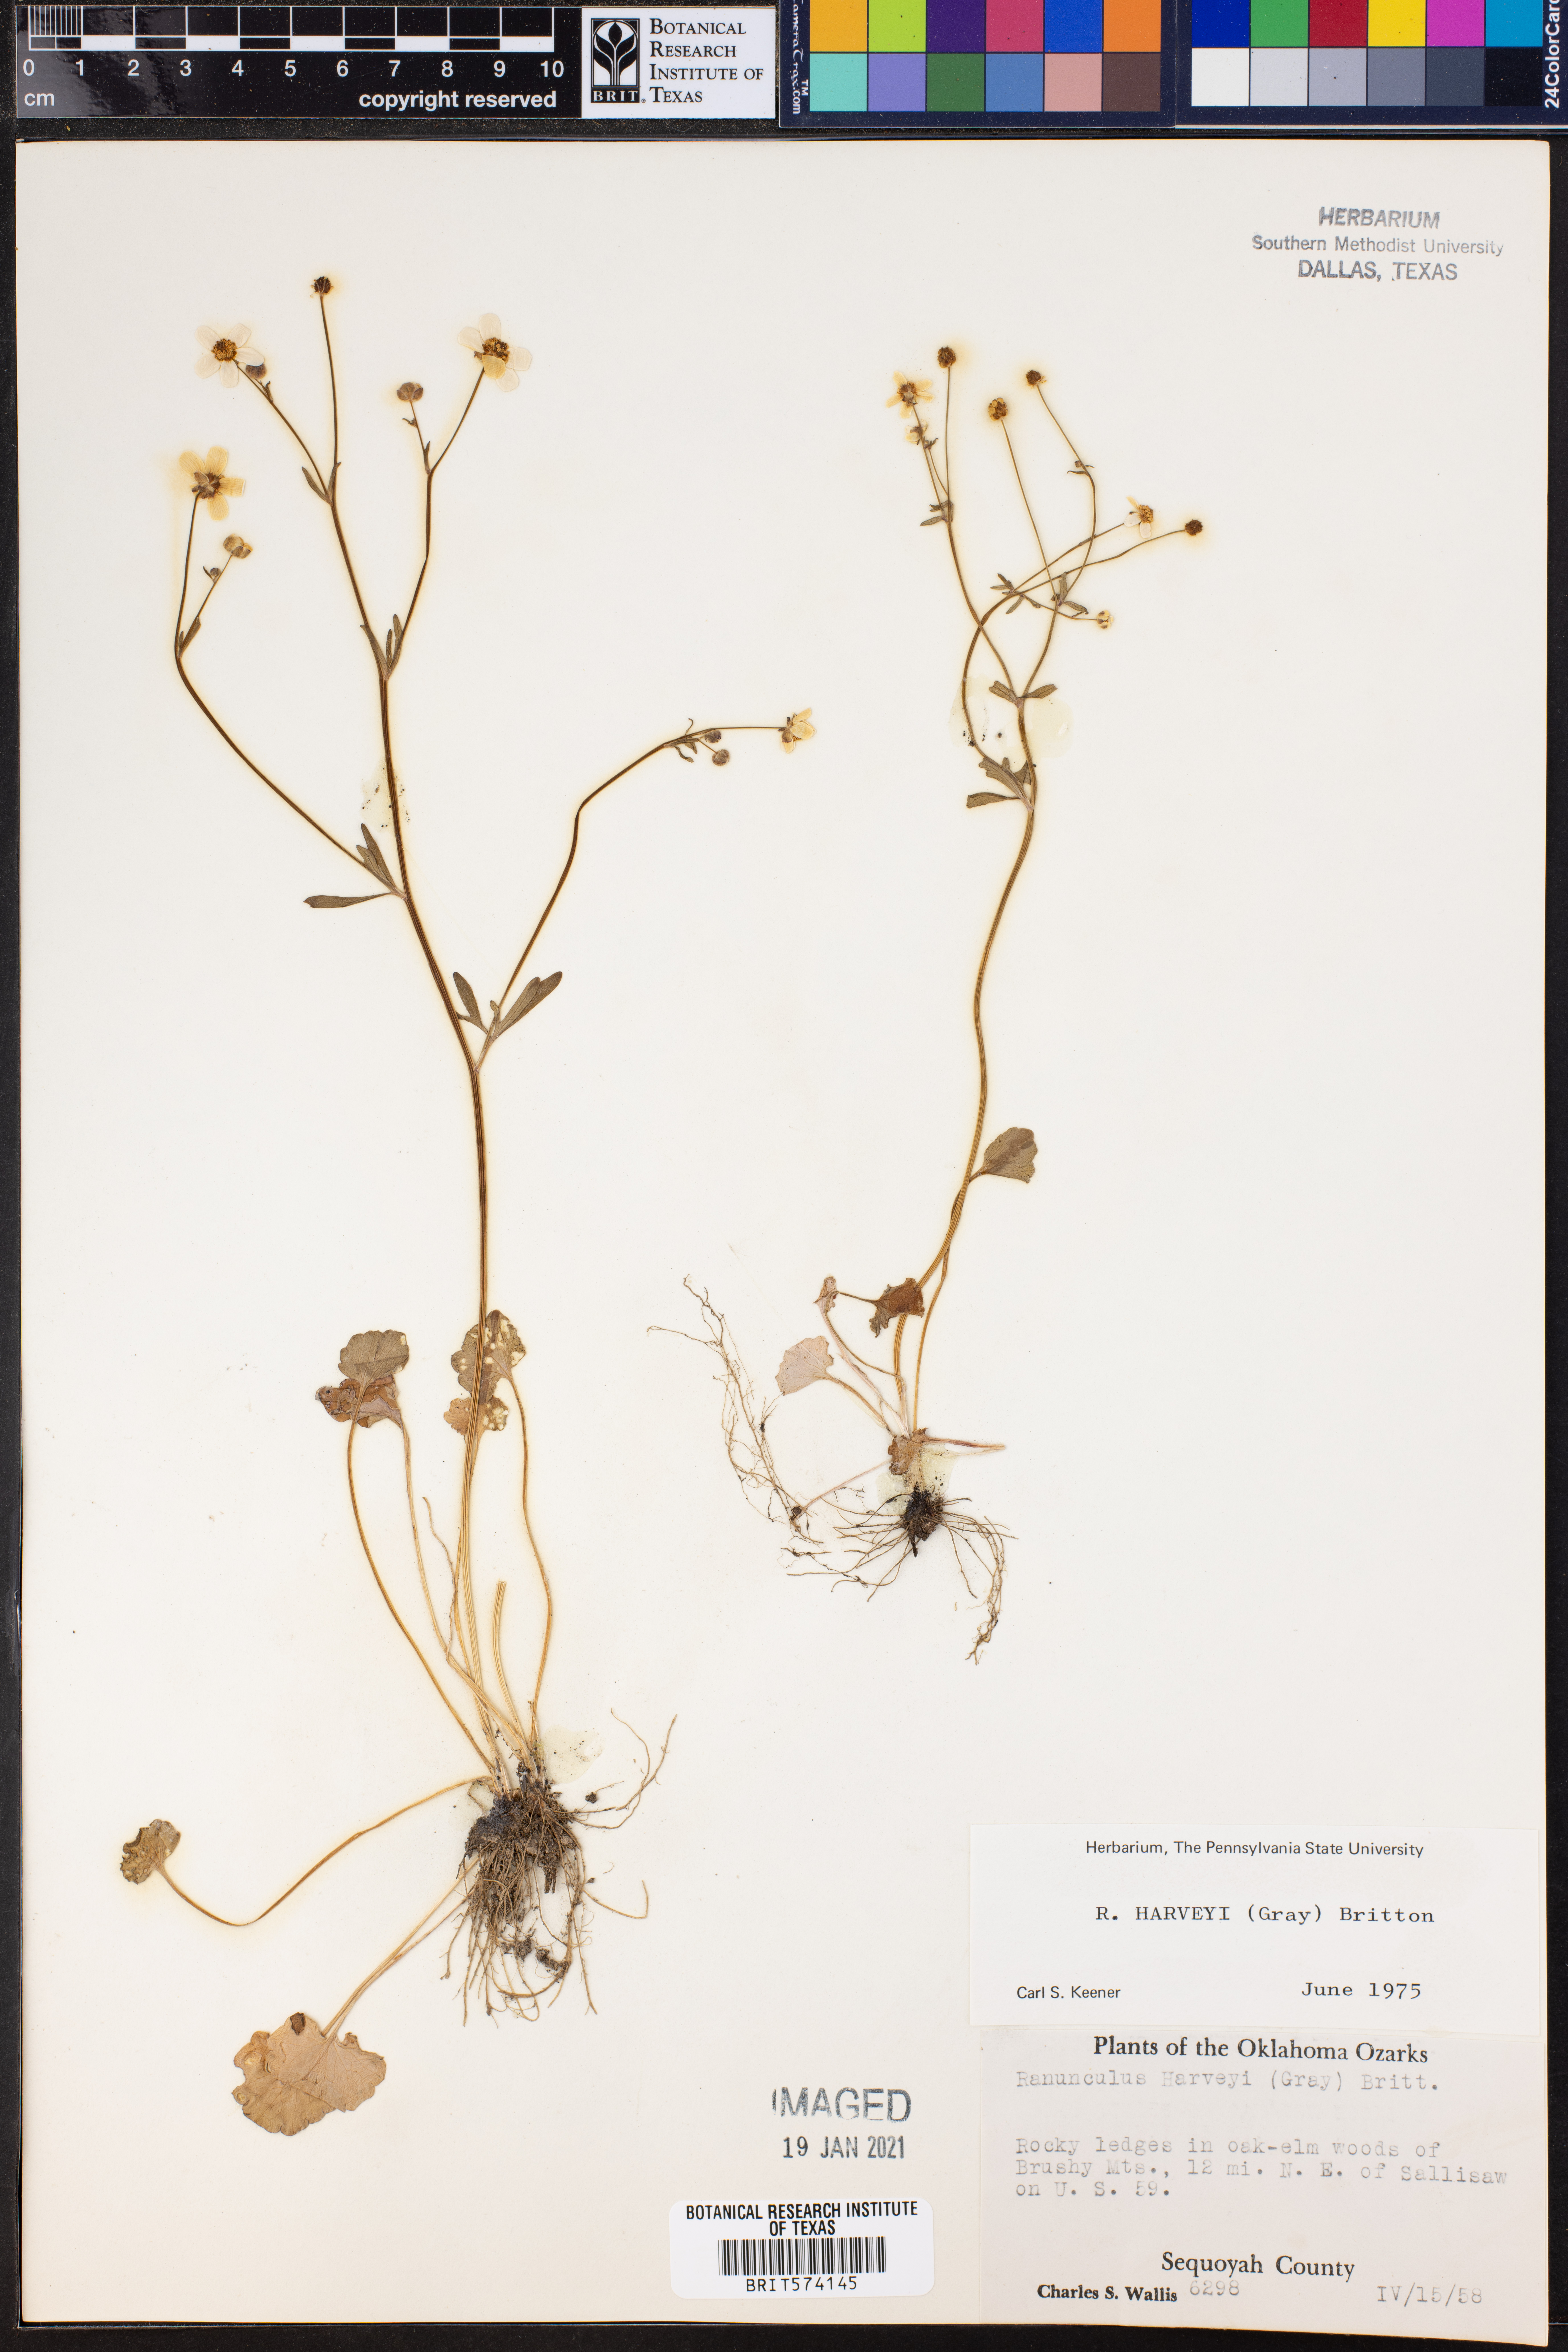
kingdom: Plantae
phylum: Tracheophyta
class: Magnoliopsida
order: Ranunculales
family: Ranunculaceae
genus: Ranunculus
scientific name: Ranunculus harveyi
